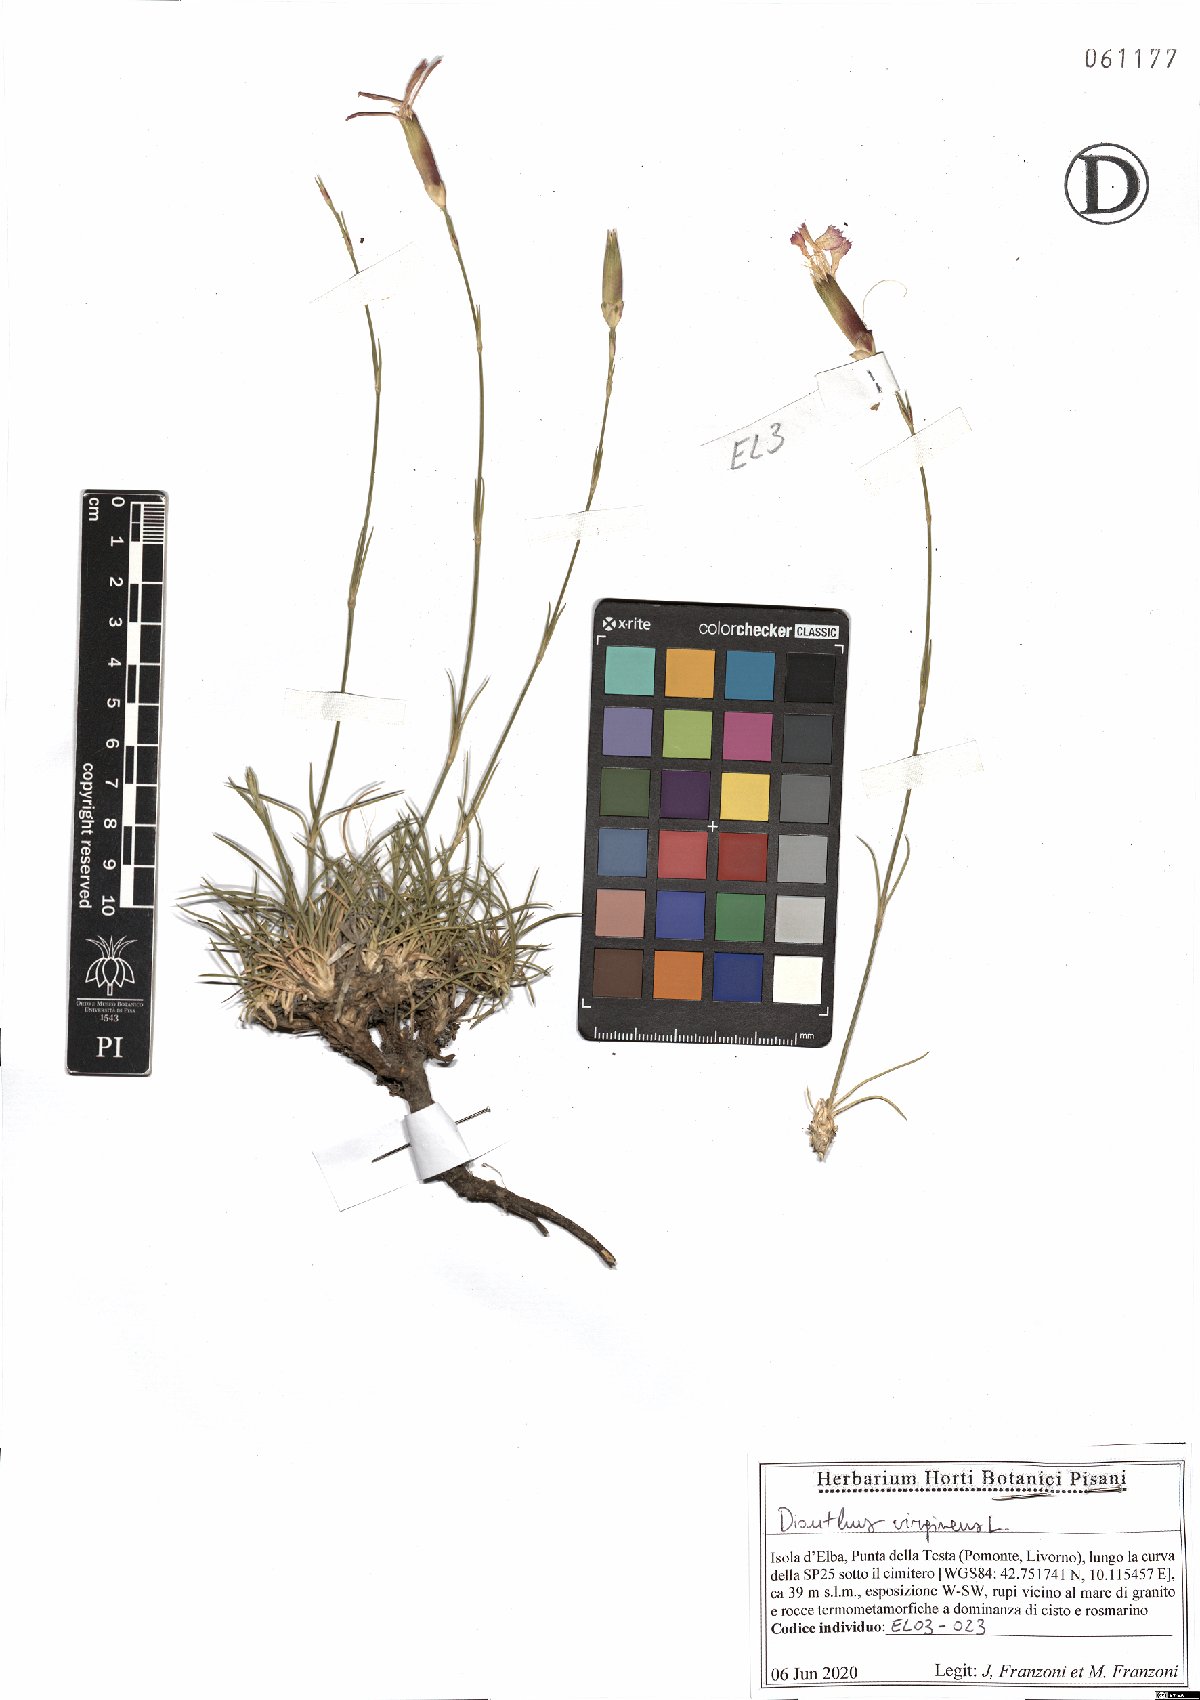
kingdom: Plantae
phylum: Tracheophyta
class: Magnoliopsida
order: Caryophyllales
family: Caryophyllaceae
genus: Dianthus
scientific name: Dianthus virgineus
